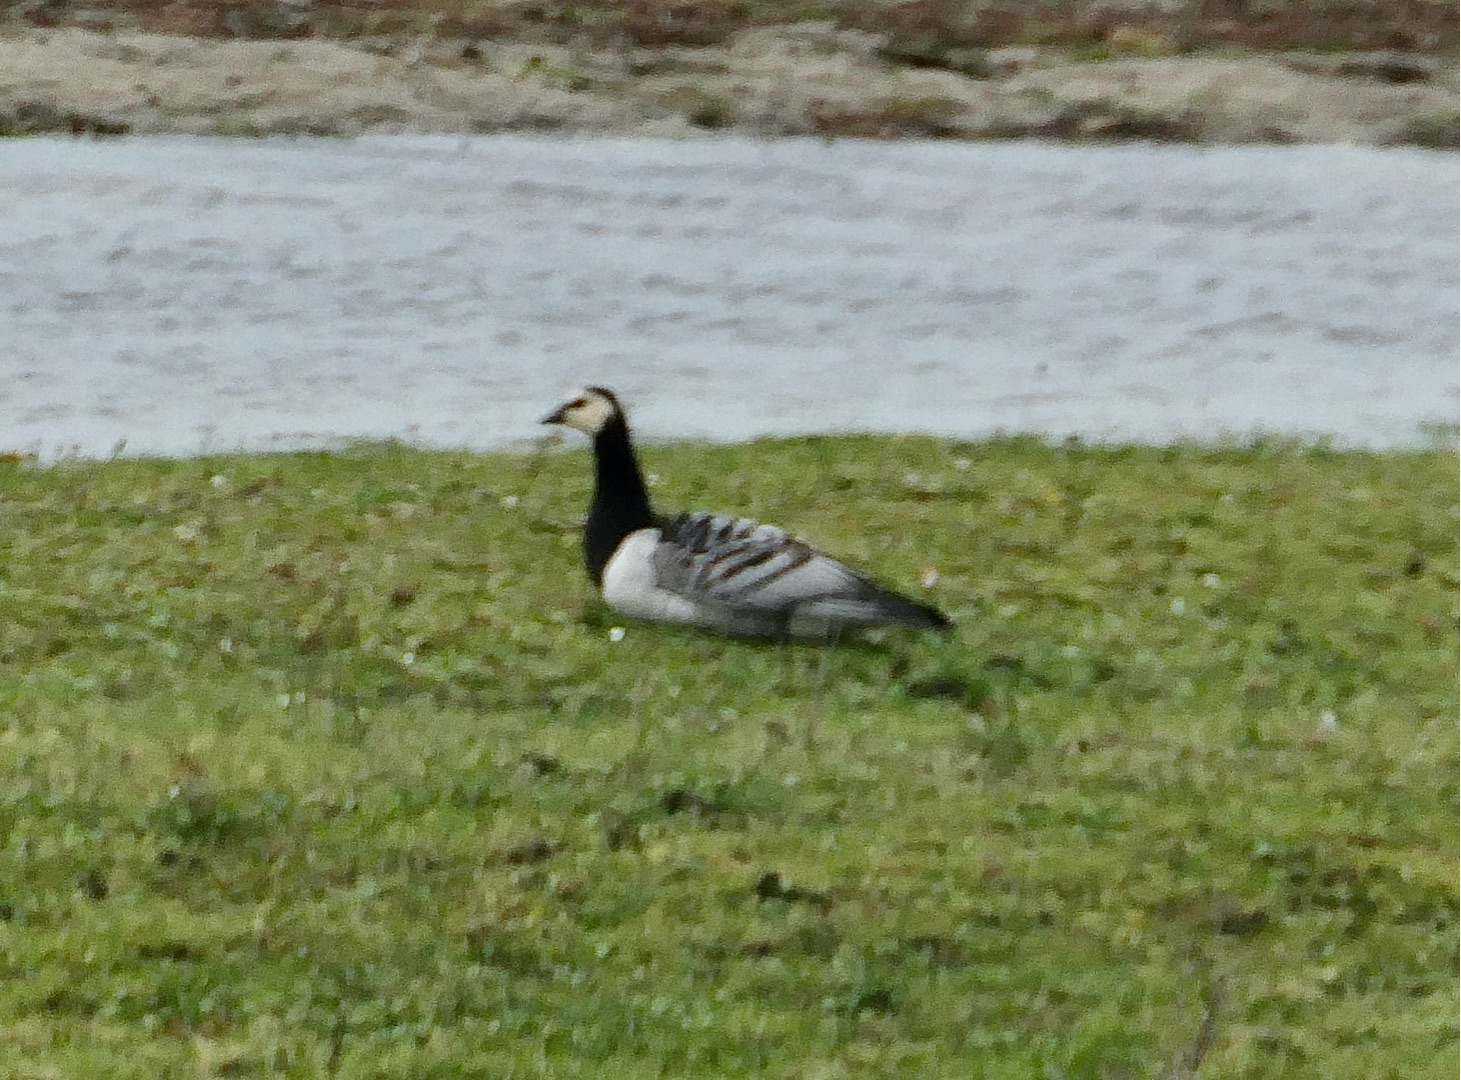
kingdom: Animalia
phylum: Chordata
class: Aves
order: Anseriformes
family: Anatidae
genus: Branta
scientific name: Branta leucopsis
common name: Bramgås
